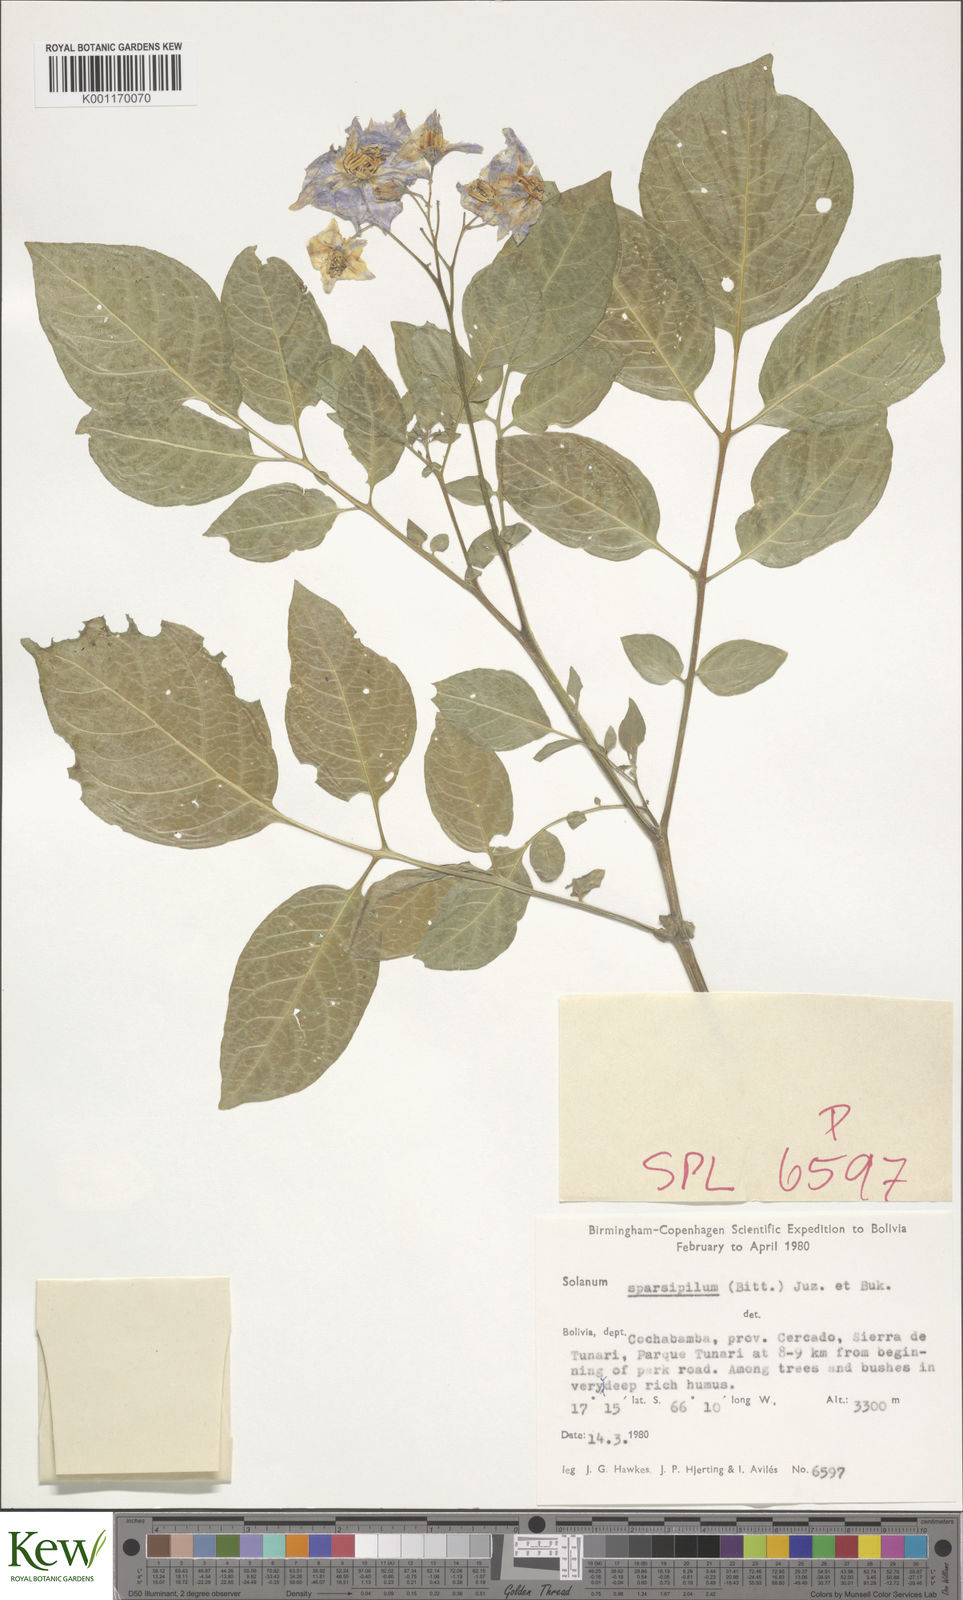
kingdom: Plantae
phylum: Tracheophyta
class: Magnoliopsida
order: Solanales
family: Solanaceae
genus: Solanum
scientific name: Solanum brevicaule
